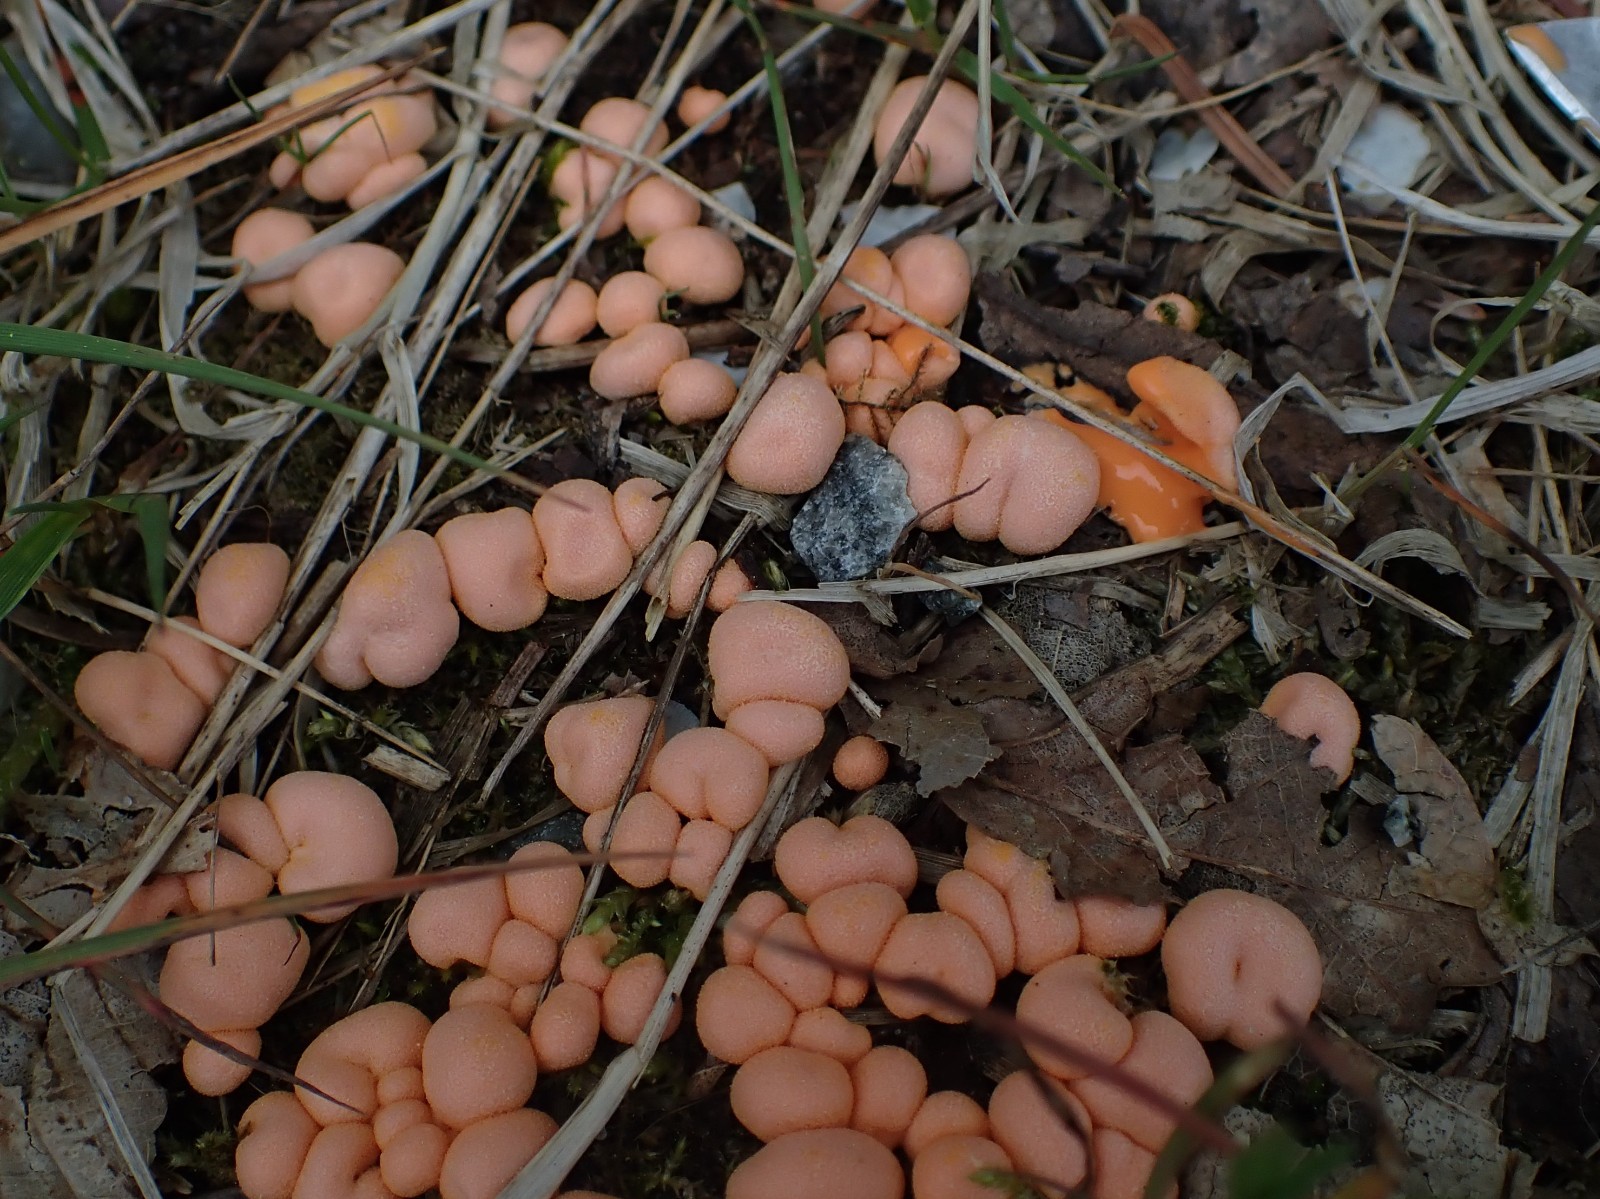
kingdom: Protozoa
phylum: Mycetozoa
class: Myxomycetes
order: Cribrariales
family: Tubiferaceae
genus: Lycogala
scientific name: Lycogala epidendrum
